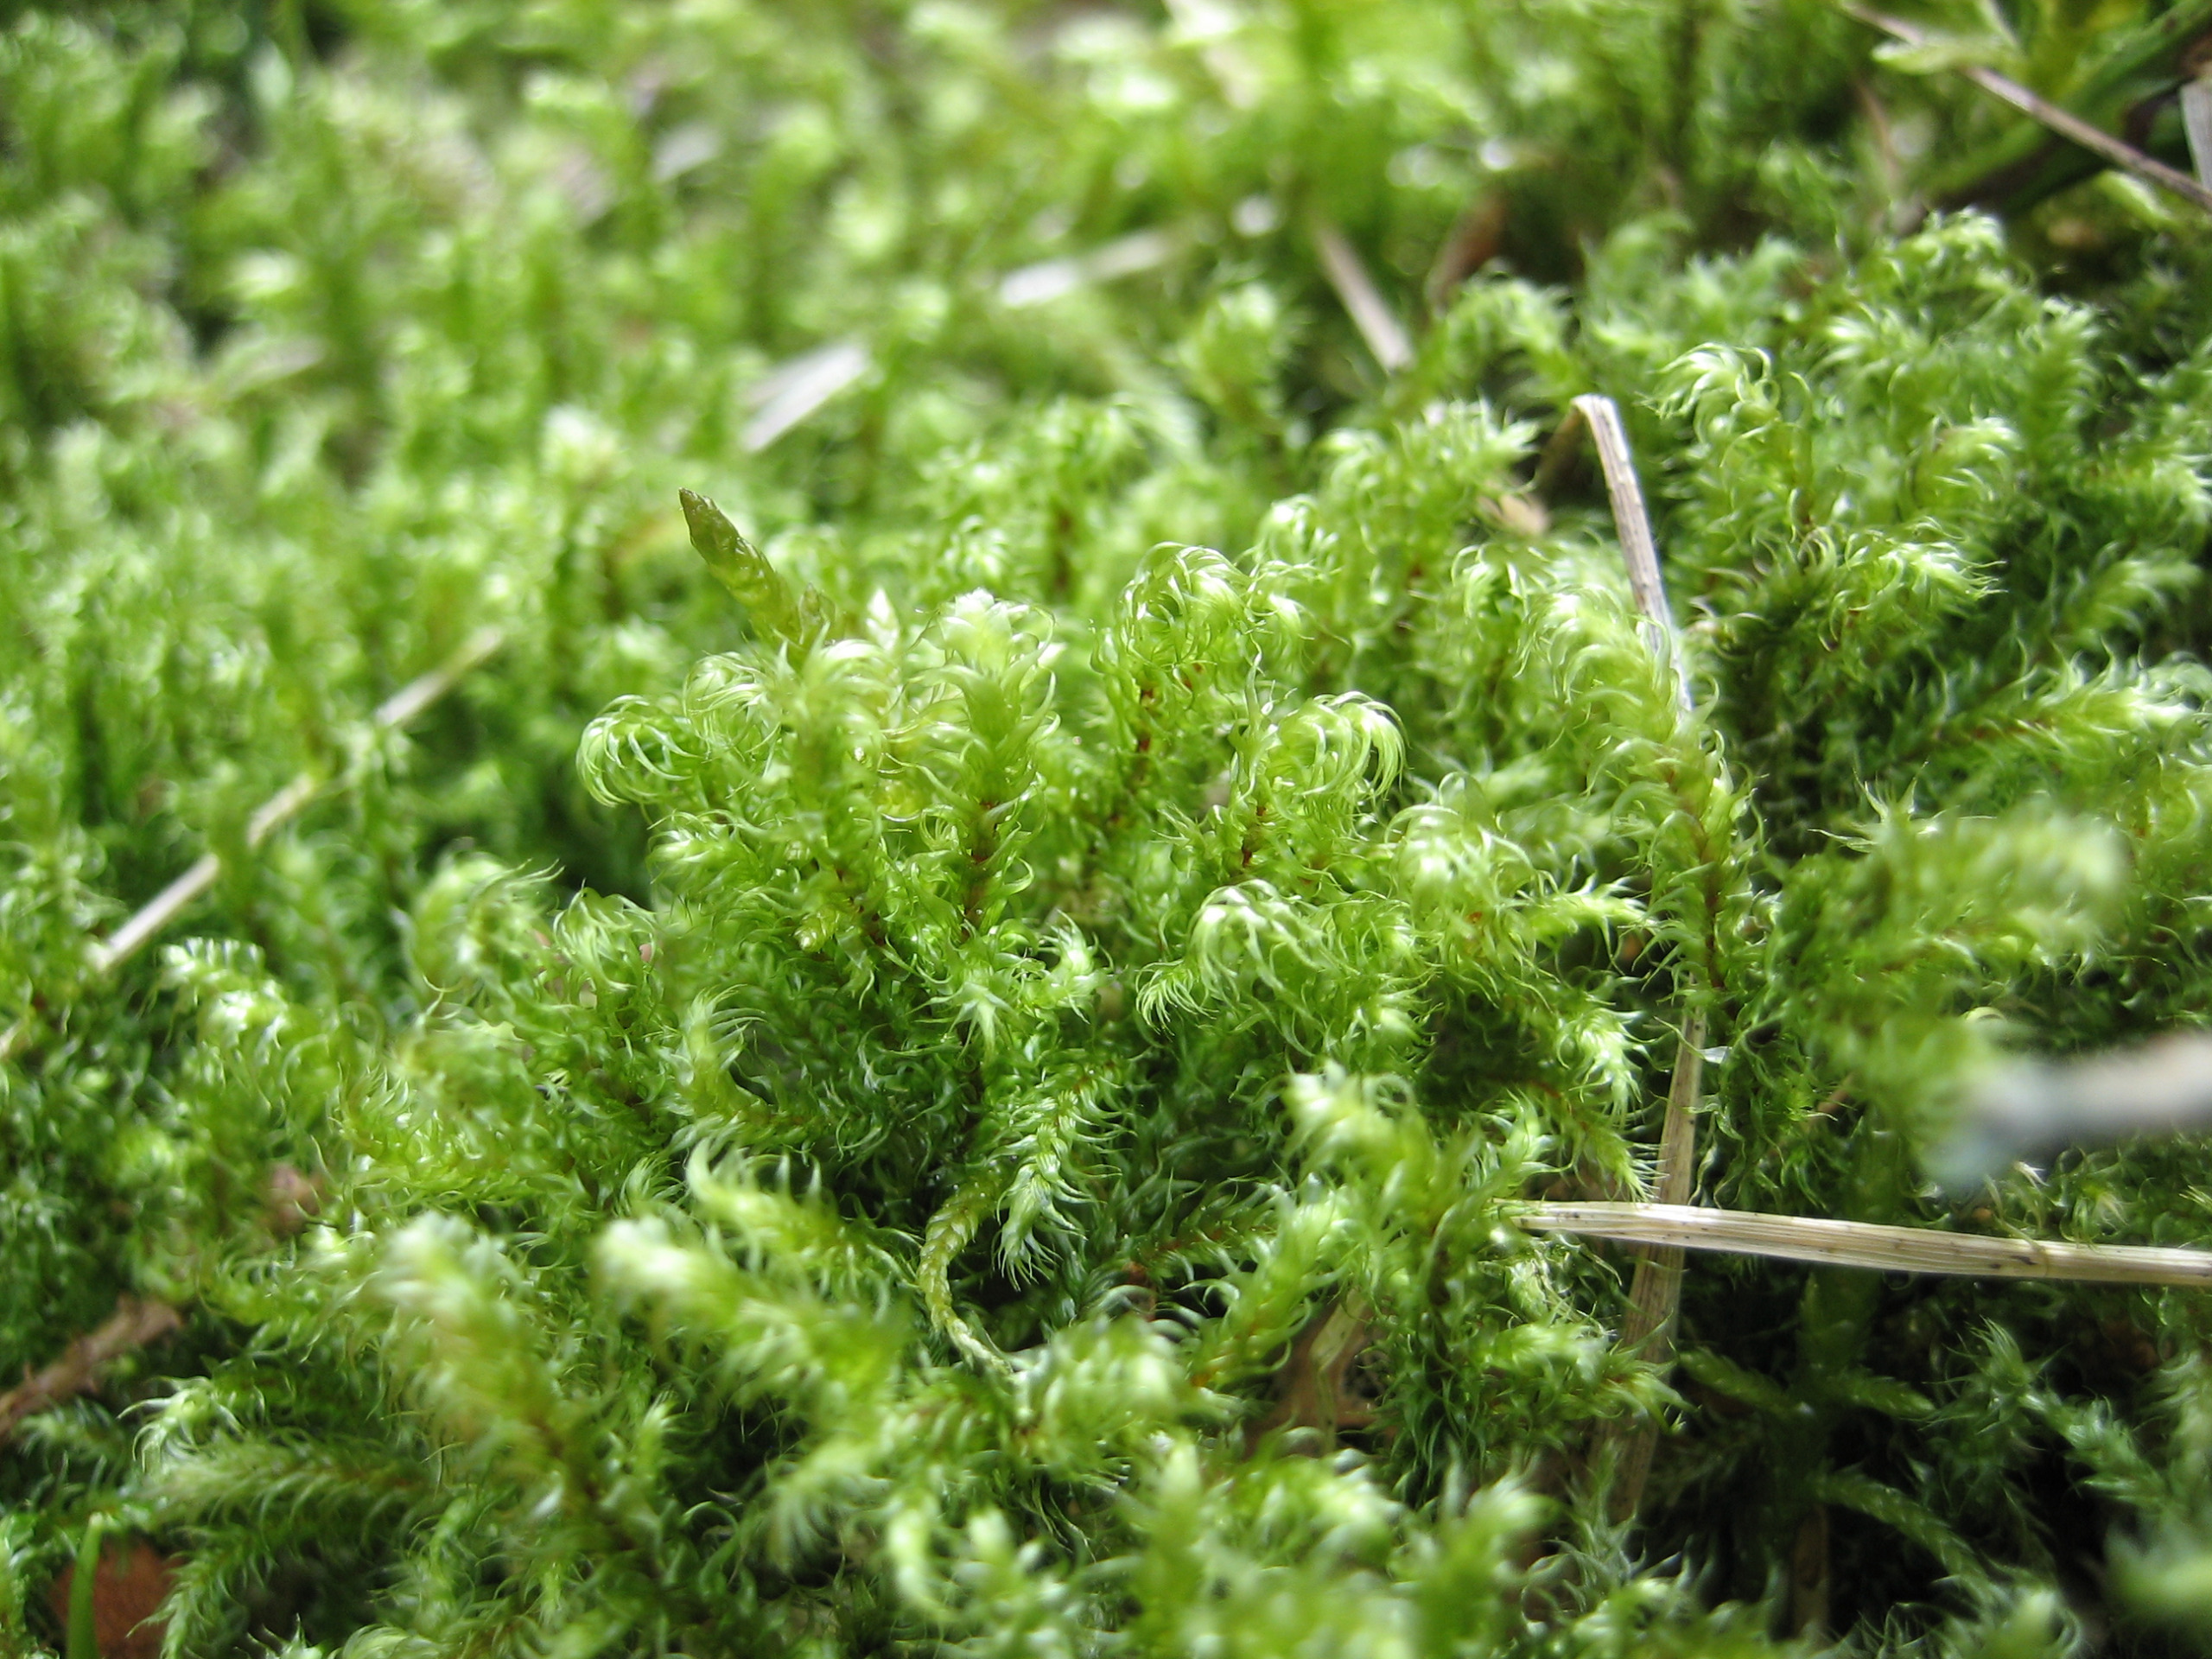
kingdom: Plantae
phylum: Bryophyta
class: Bryopsida
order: Hypnales
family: Hylocomiaceae
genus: Rhytidiadelphus
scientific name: Rhytidiadelphus loreus
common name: Ulvefod-kransemos
